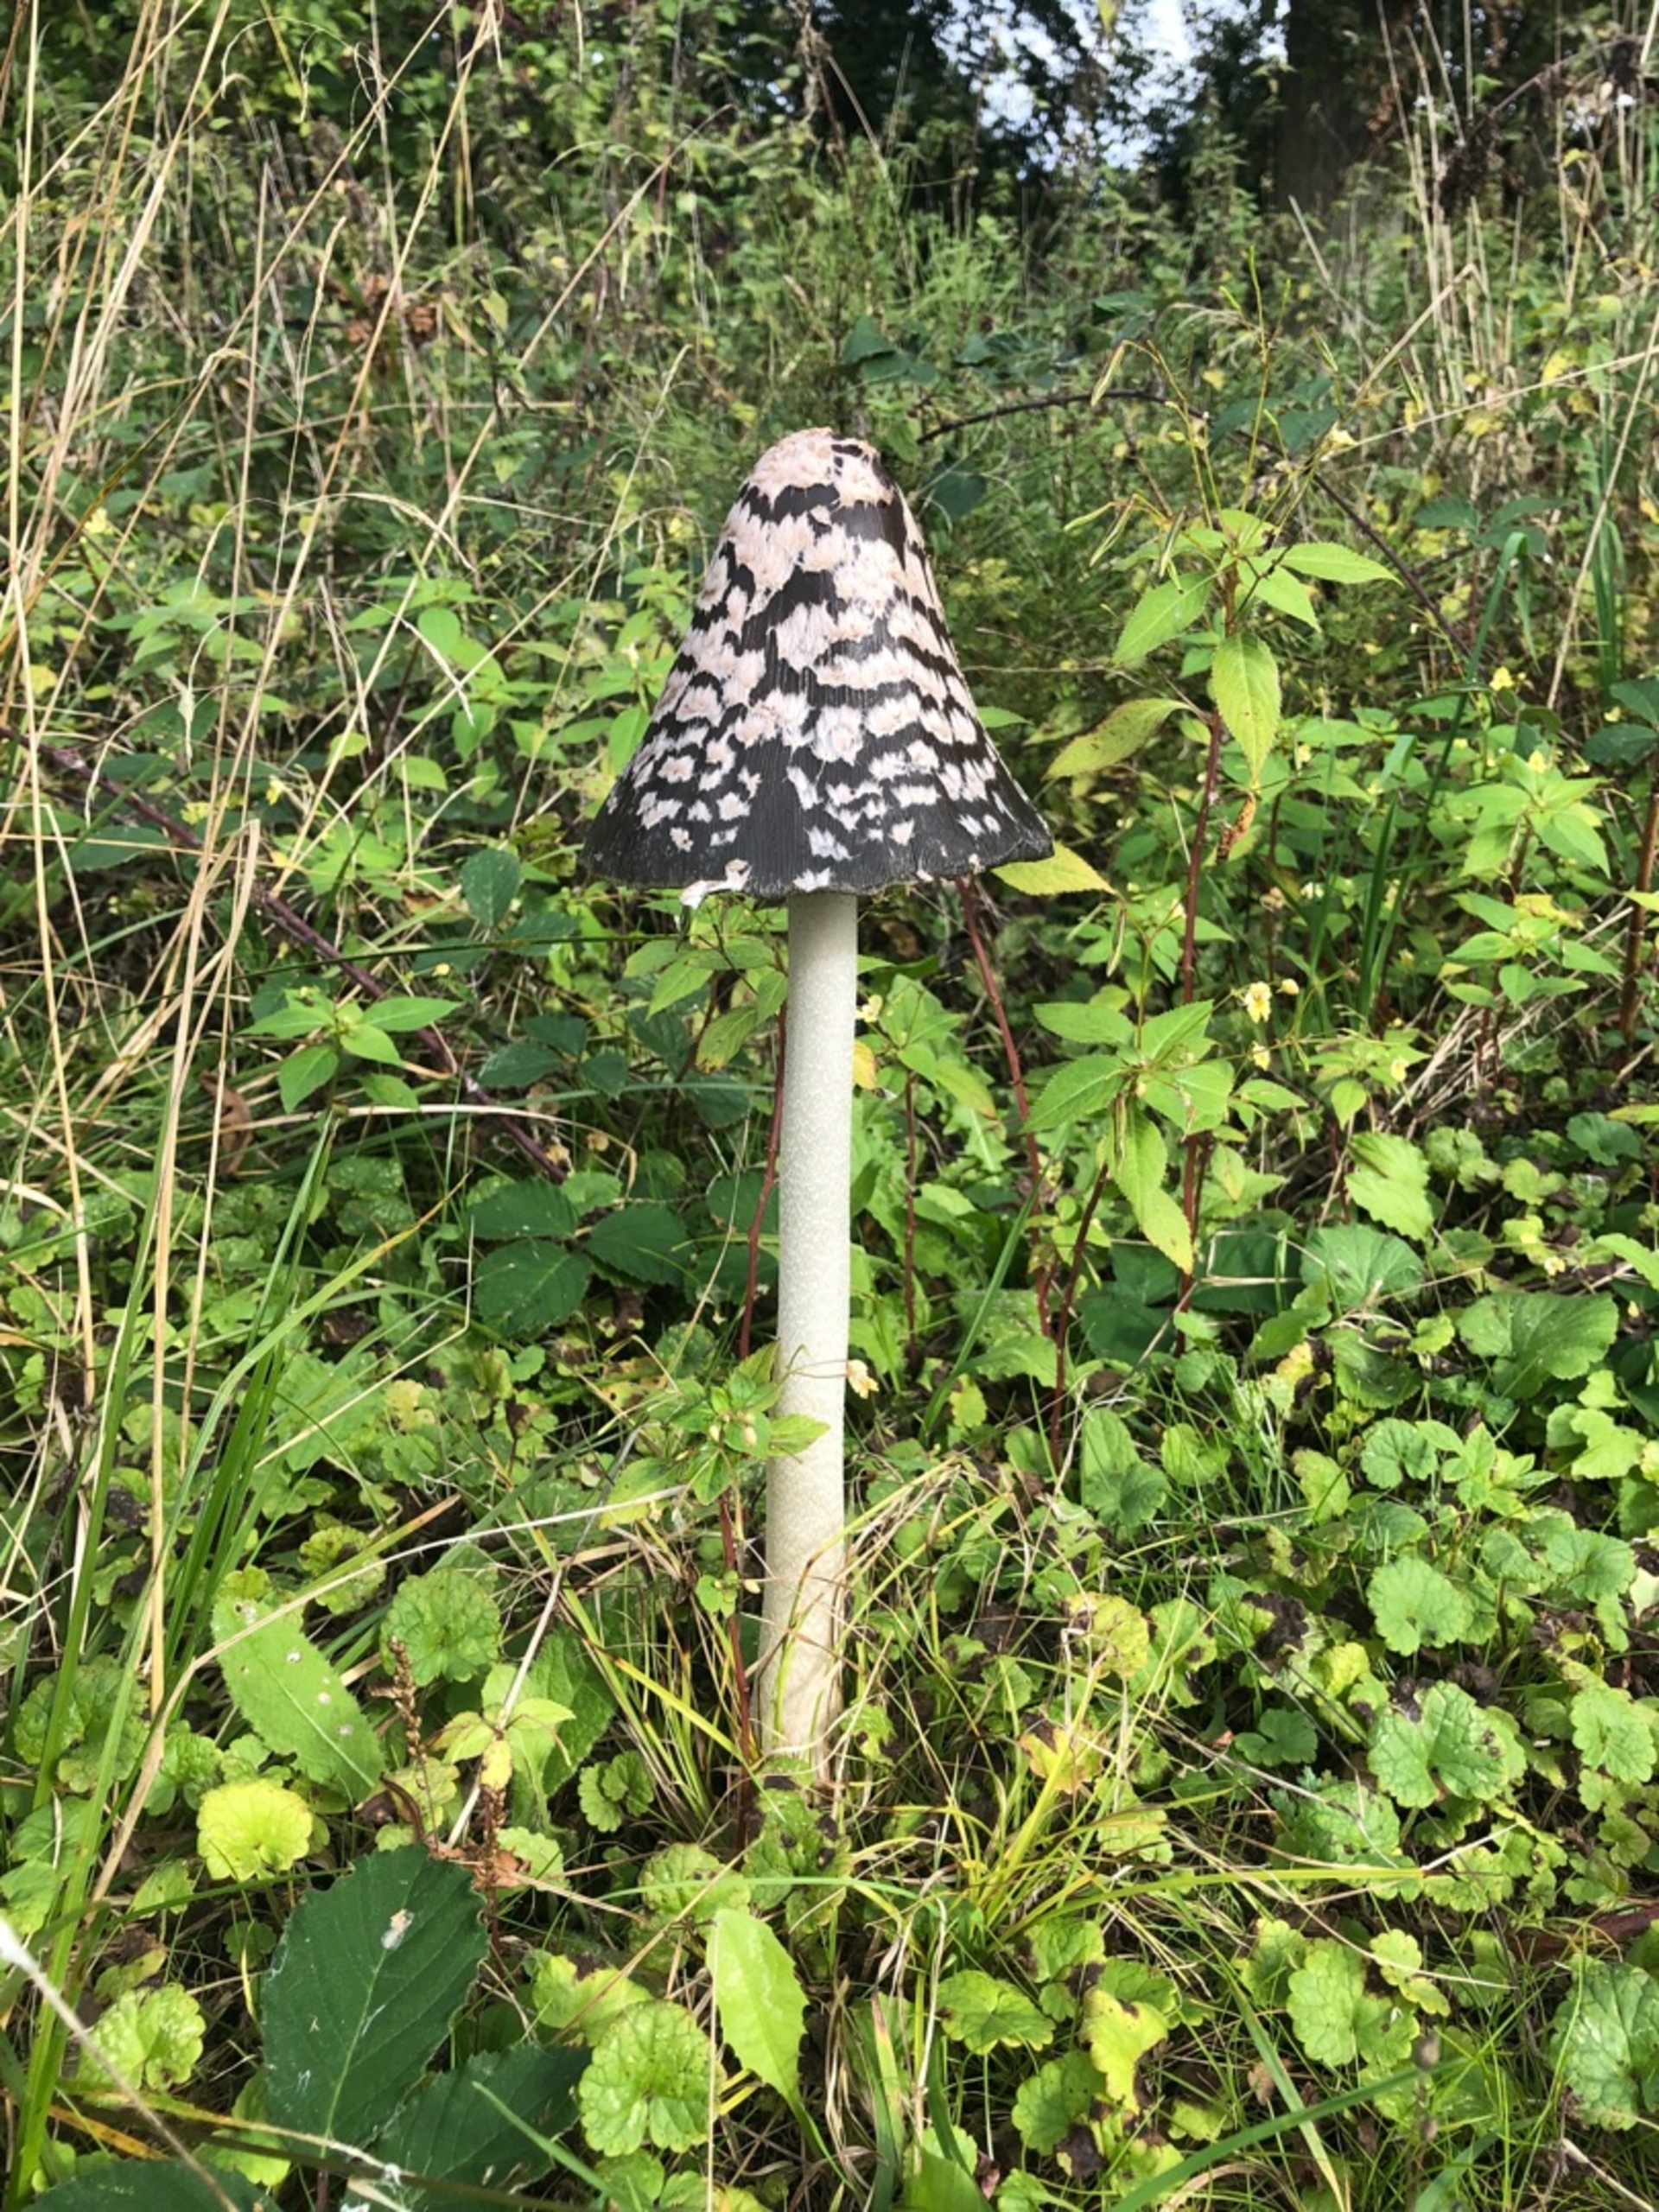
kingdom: Fungi
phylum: Basidiomycota
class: Agaricomycetes
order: Agaricales
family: Psathyrellaceae
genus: Coprinopsis
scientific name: Coprinopsis picacea
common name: Skade-blækhat
